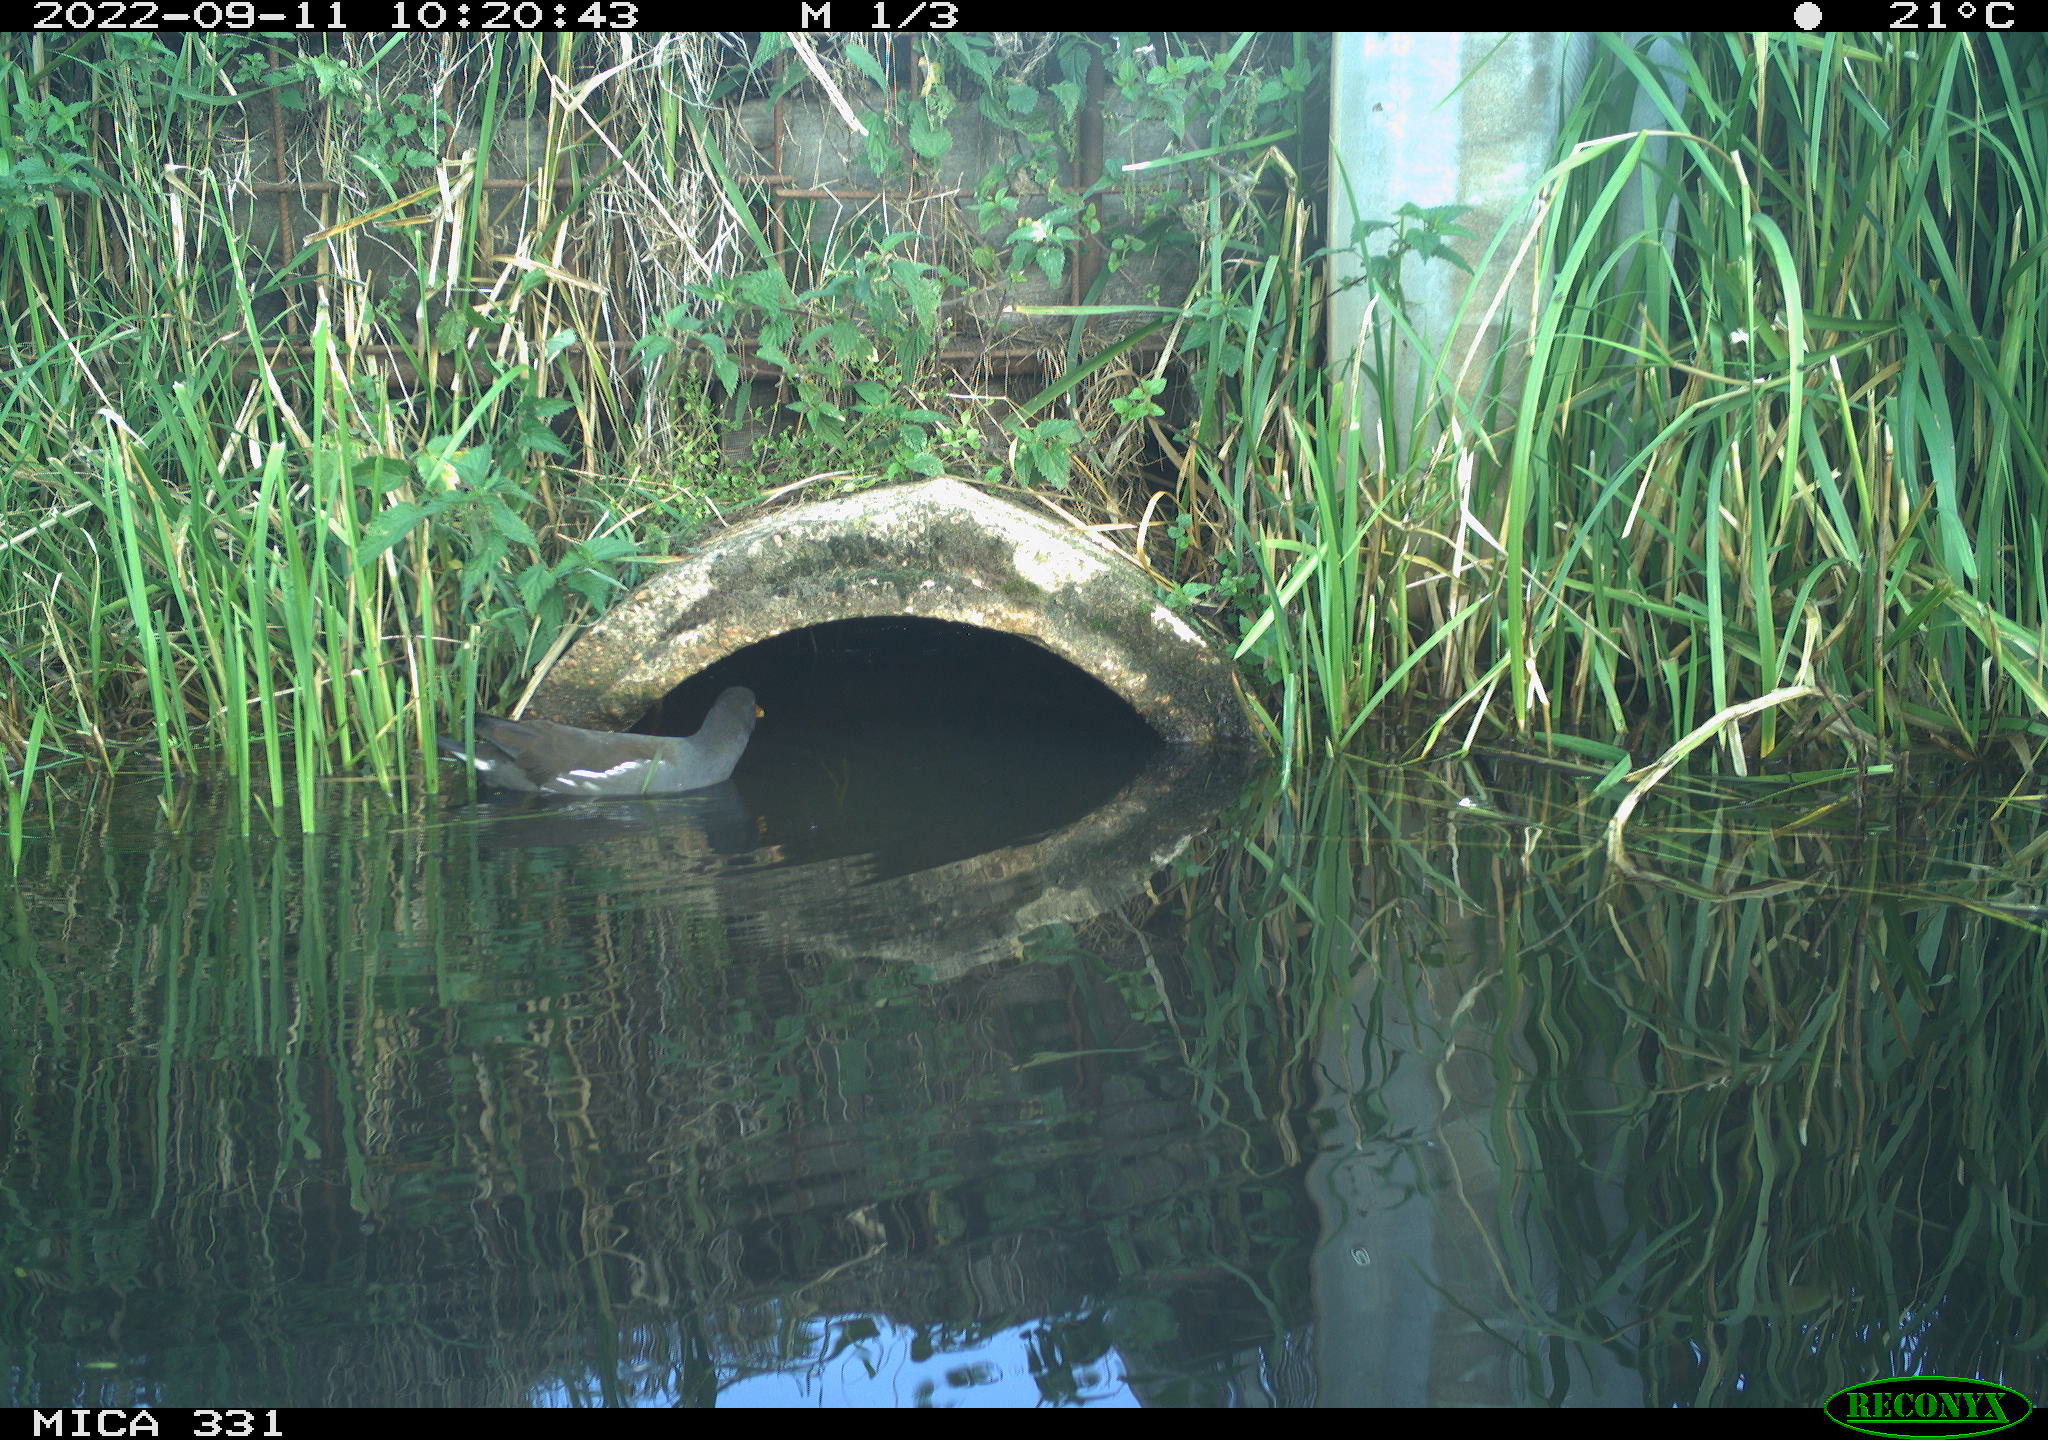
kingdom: Animalia
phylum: Chordata
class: Aves
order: Gruiformes
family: Rallidae
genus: Gallinula
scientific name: Gallinula chloropus
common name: Common moorhen
